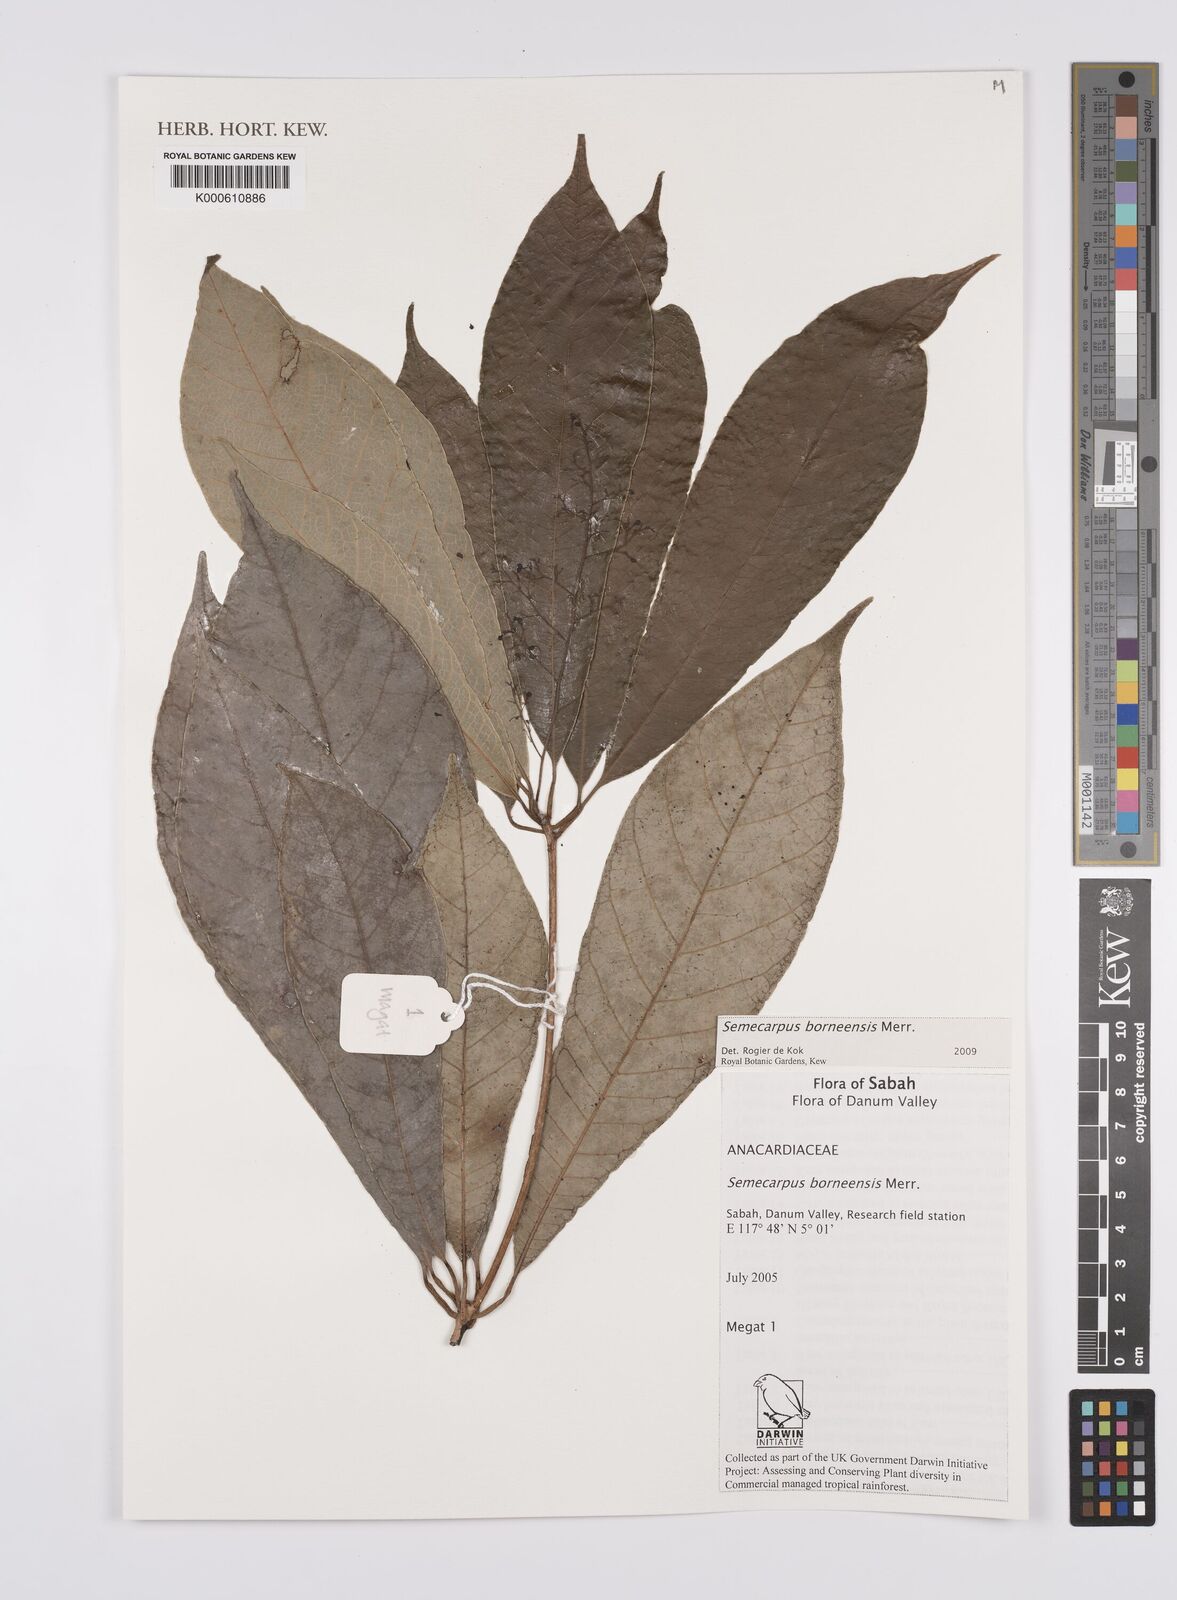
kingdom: Plantae
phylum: Tracheophyta
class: Magnoliopsida
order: Sapindales
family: Anacardiaceae
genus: Semecarpus
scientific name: Semecarpus borneensis
